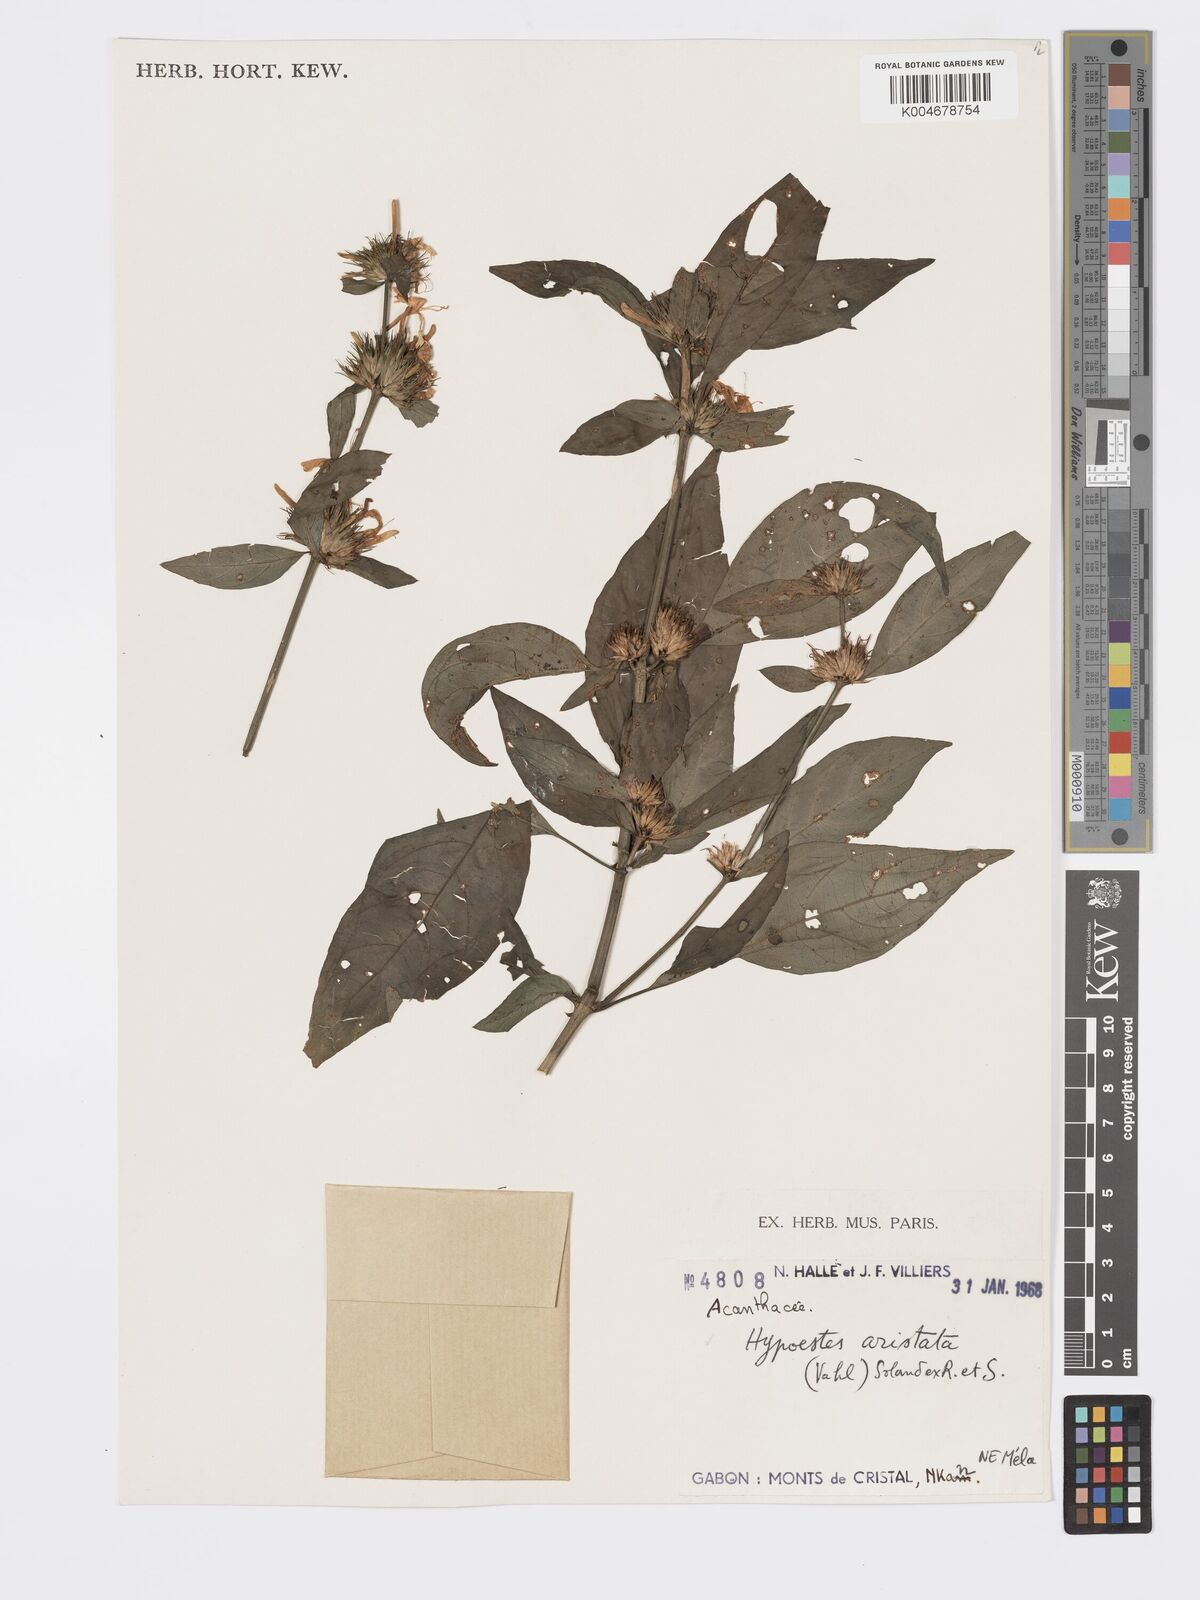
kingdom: Plantae
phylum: Tracheophyta
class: Magnoliopsida
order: Lamiales
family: Acanthaceae
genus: Hypoestes
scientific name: Hypoestes aristata
